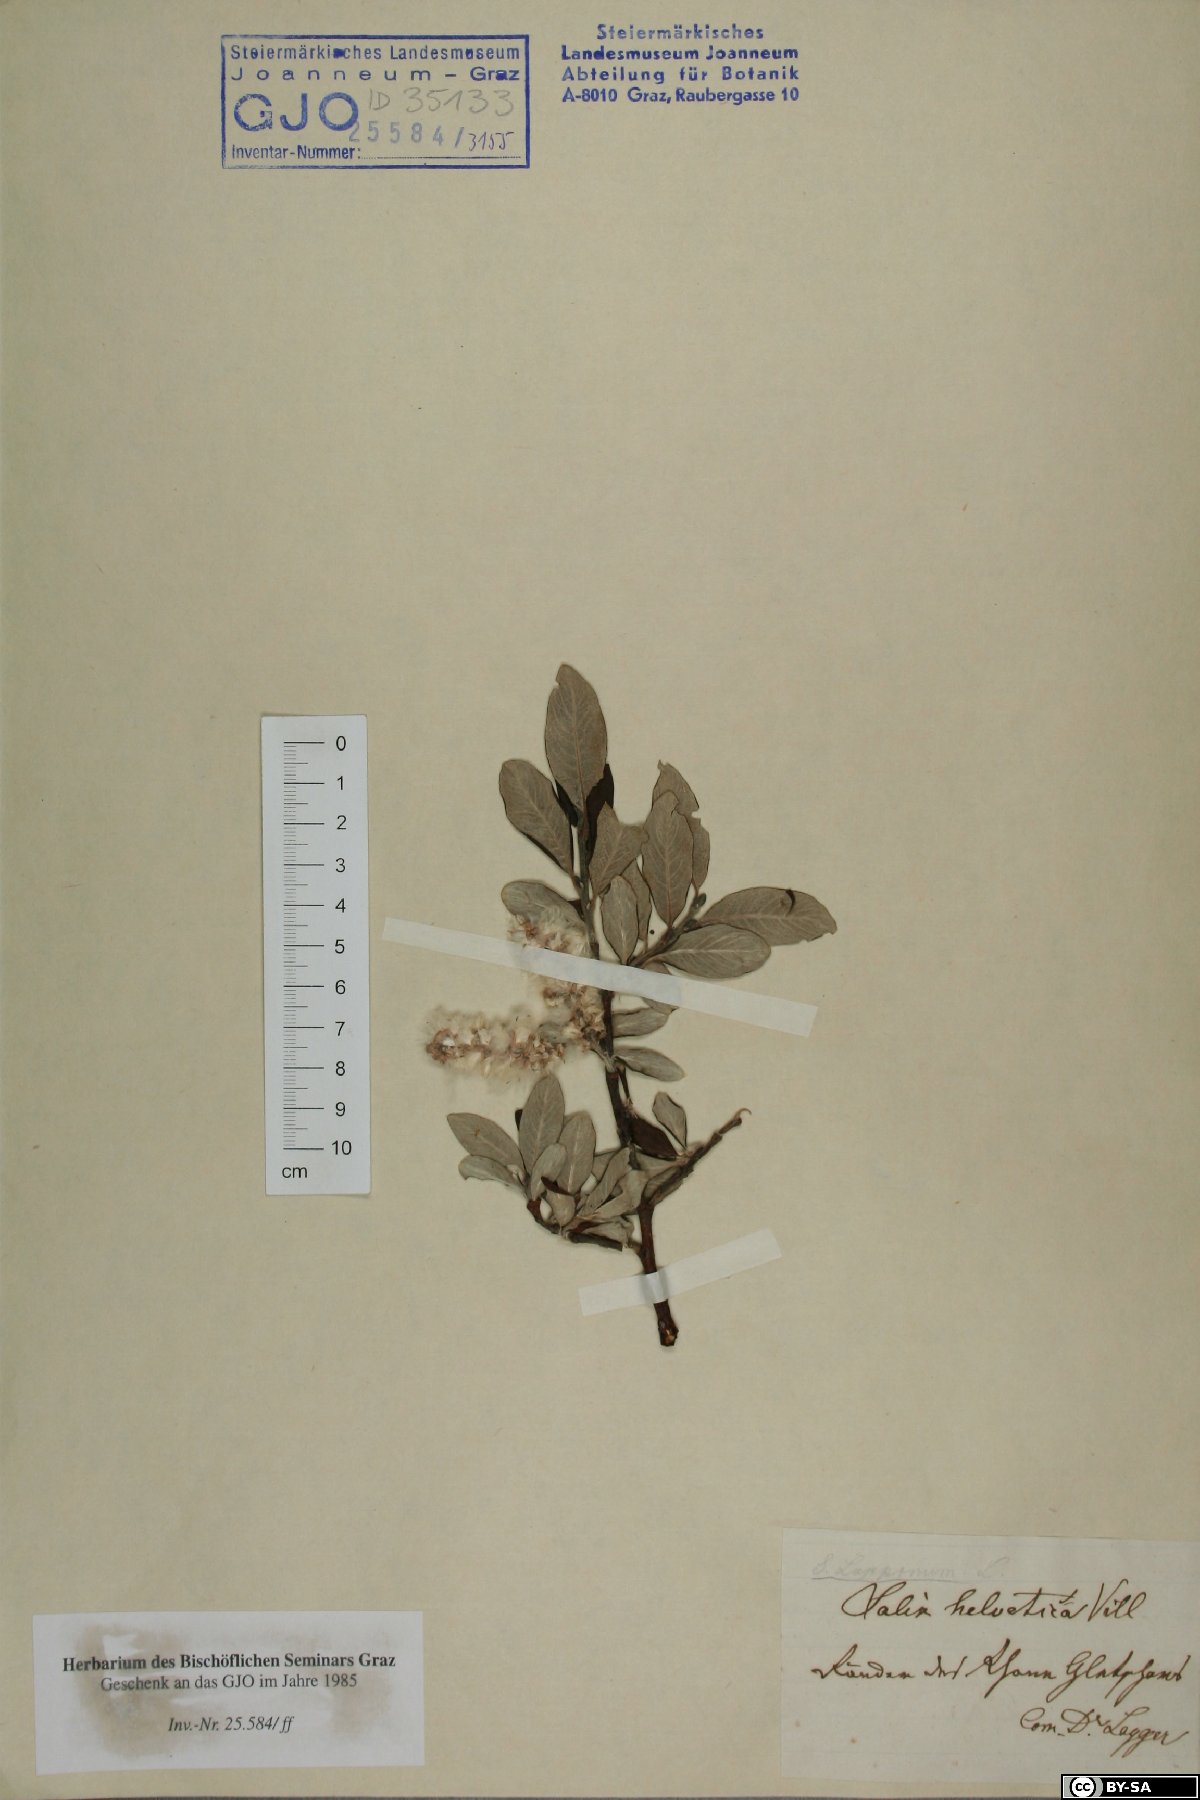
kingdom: Plantae
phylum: Tracheophyta
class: Magnoliopsida
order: Malpighiales
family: Salicaceae
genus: Salix
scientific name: Salix helvetica
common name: Swiss willow
